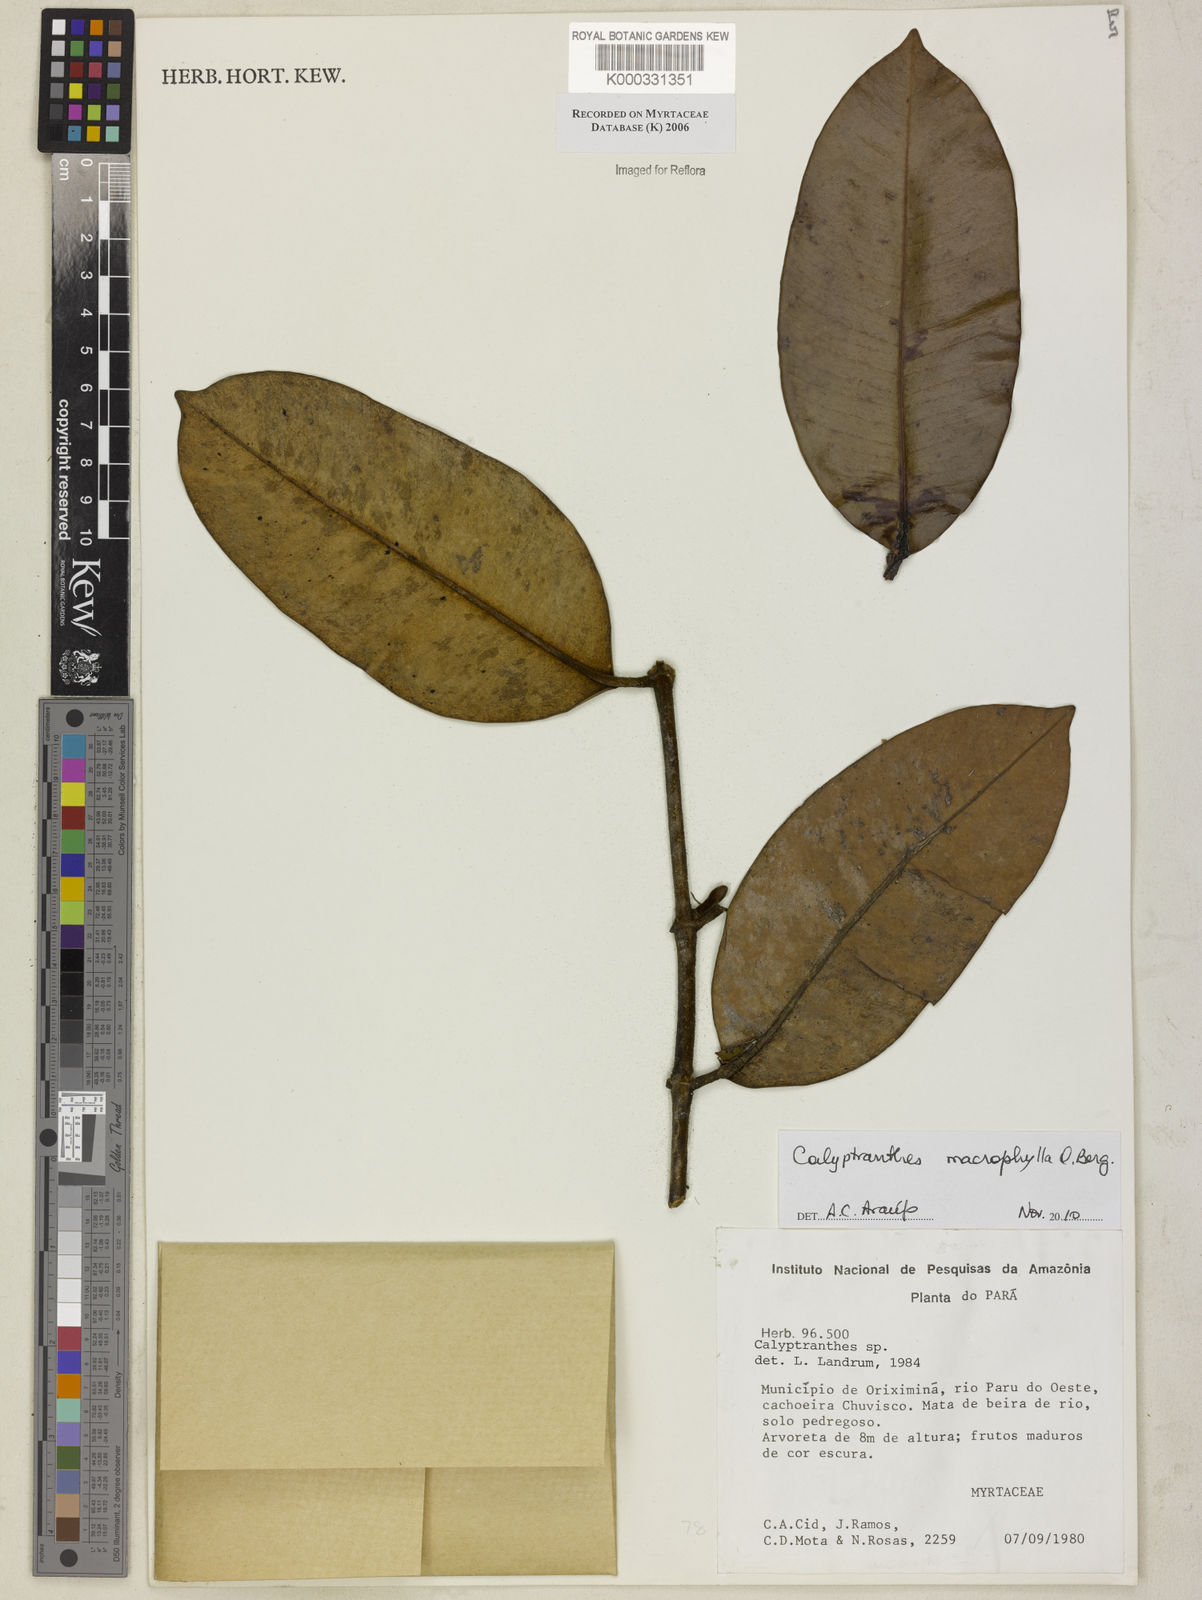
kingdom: Plantae
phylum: Tracheophyta
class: Magnoliopsida
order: Myrtales
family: Myrtaceae
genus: Calyptranthes
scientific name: Calyptranthes
